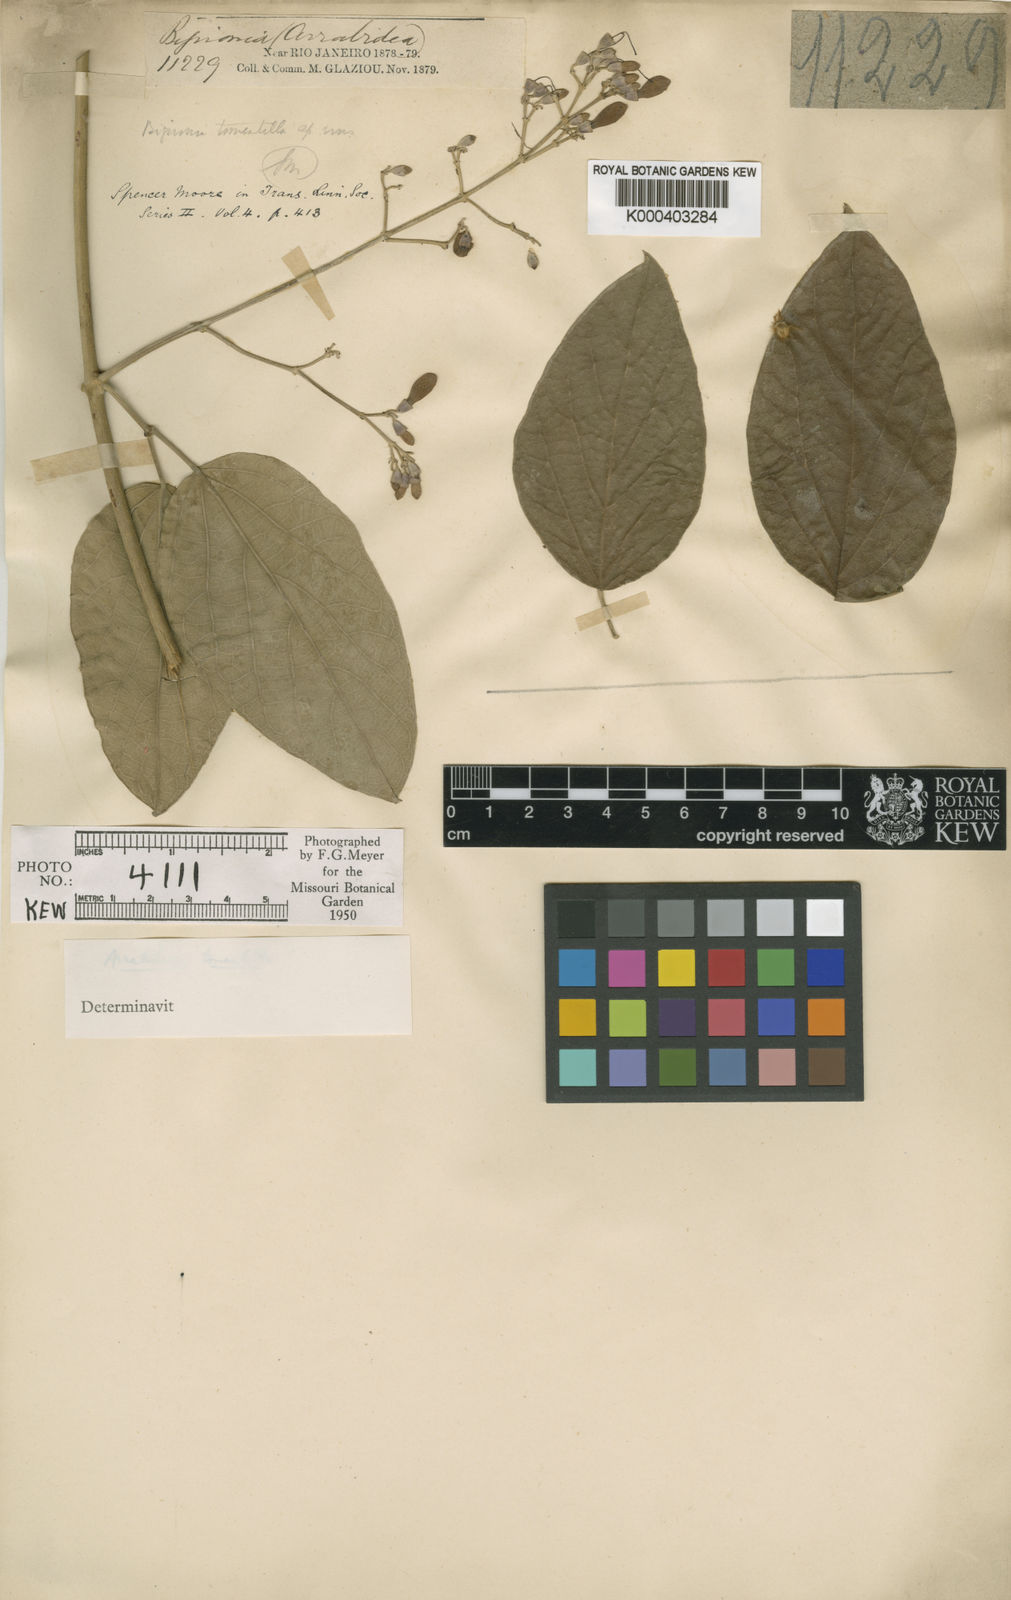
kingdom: Plantae
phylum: Tracheophyta
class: Magnoliopsida
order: Rosales
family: Rhamnaceae
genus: Arrabidaea
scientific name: Arrabidaea
